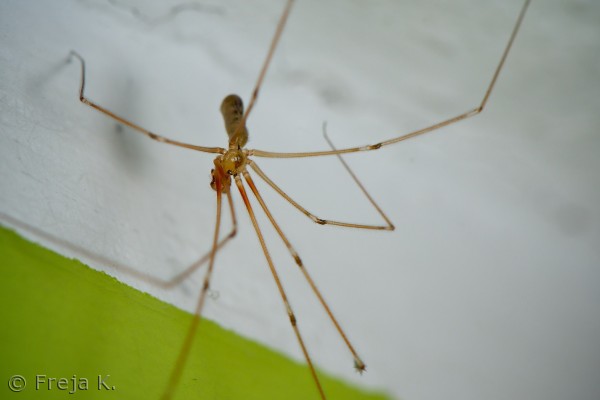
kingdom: Animalia
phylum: Arthropoda
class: Arachnida
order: Araneae
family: Araneidae
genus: Araneus
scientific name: Araneus diadematus
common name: Korsedderkop
